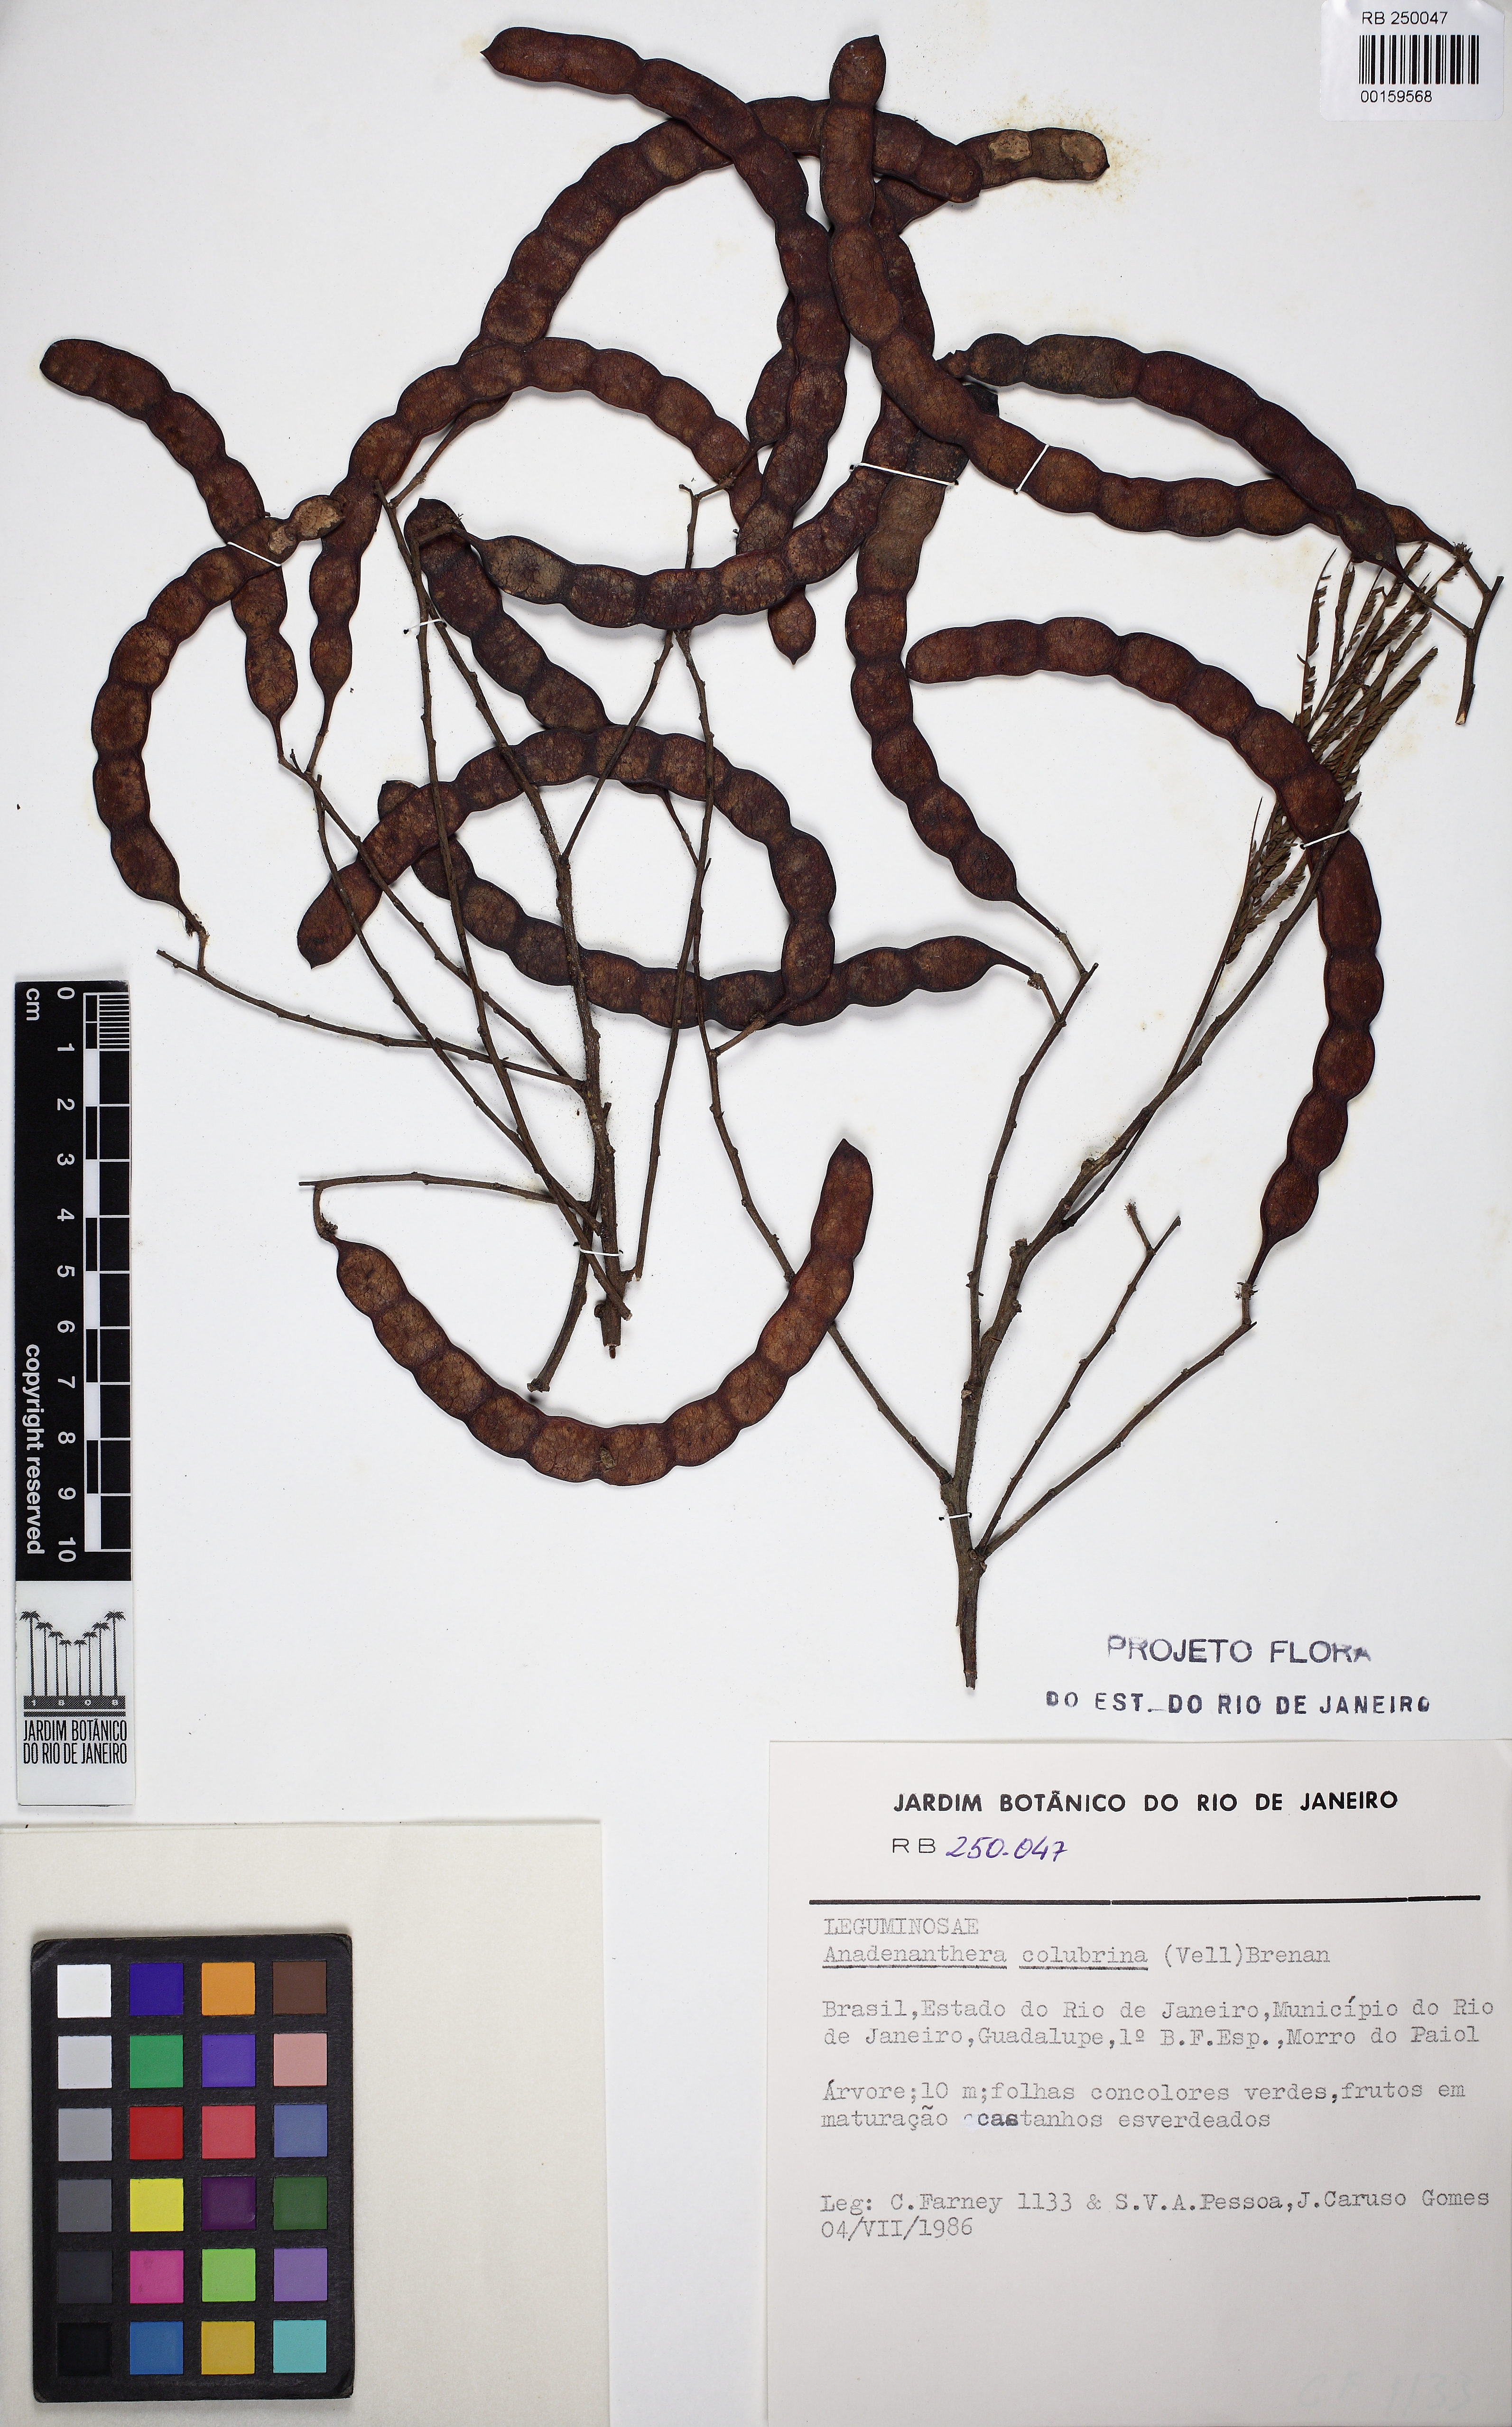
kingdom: Plantae
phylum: Tracheophyta
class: Magnoliopsida
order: Fabales
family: Fabaceae
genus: Anadenanthera
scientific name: Anadenanthera colubrina
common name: Curupay
